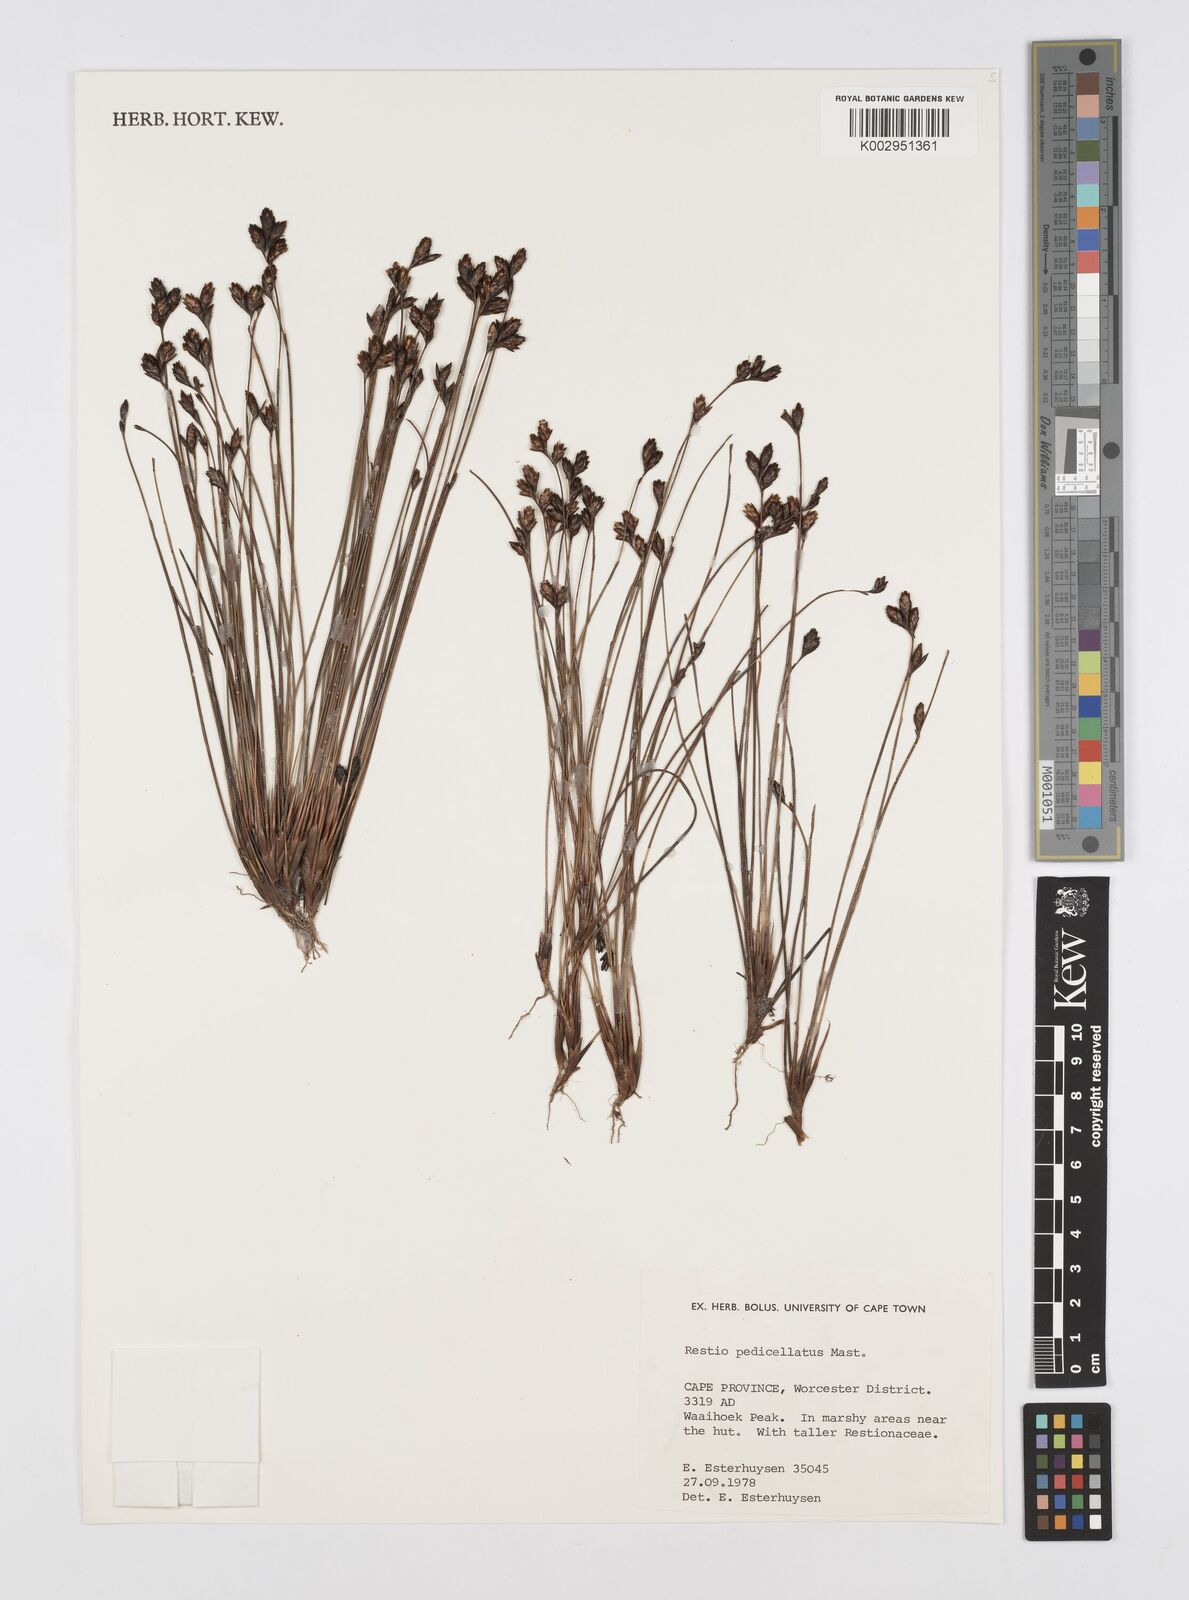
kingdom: Plantae
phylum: Tracheophyta
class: Liliopsida
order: Poales
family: Restionaceae
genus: Restio
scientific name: Restio pedicellatus
